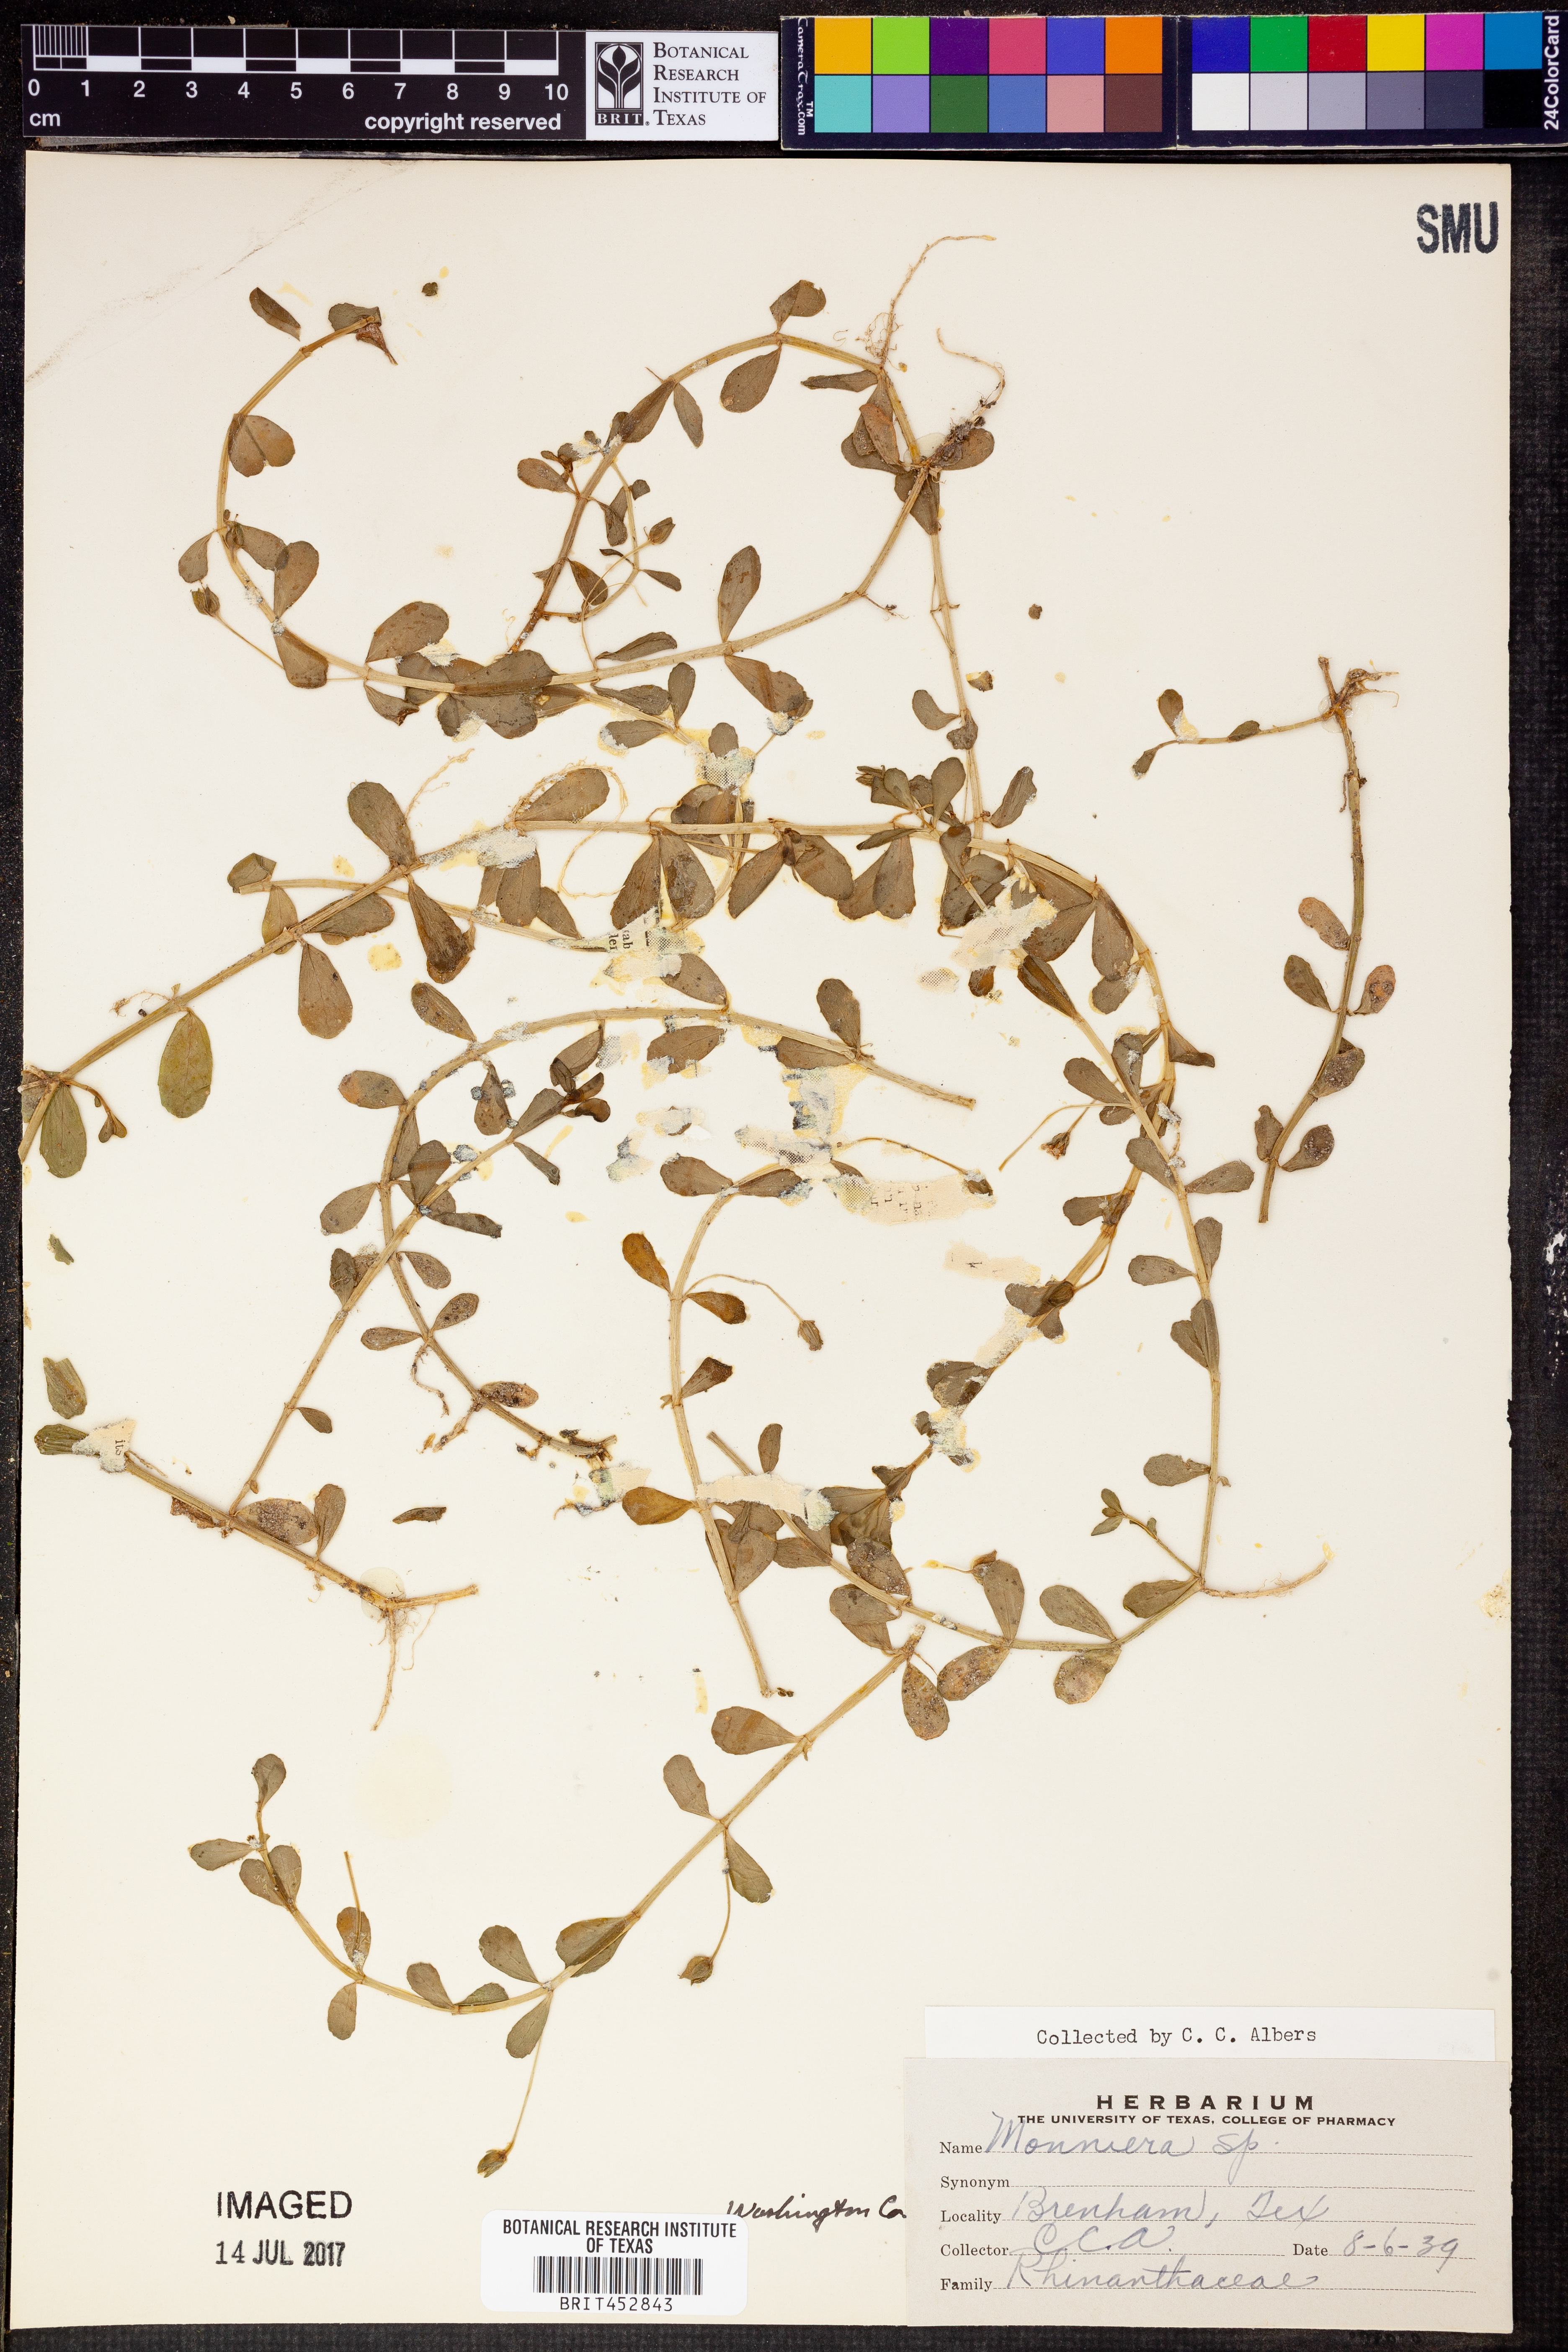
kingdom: Plantae
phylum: Tracheophyta
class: Magnoliopsida
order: Sapindales
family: Rutaceae
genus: Monniera
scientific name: Monniera
